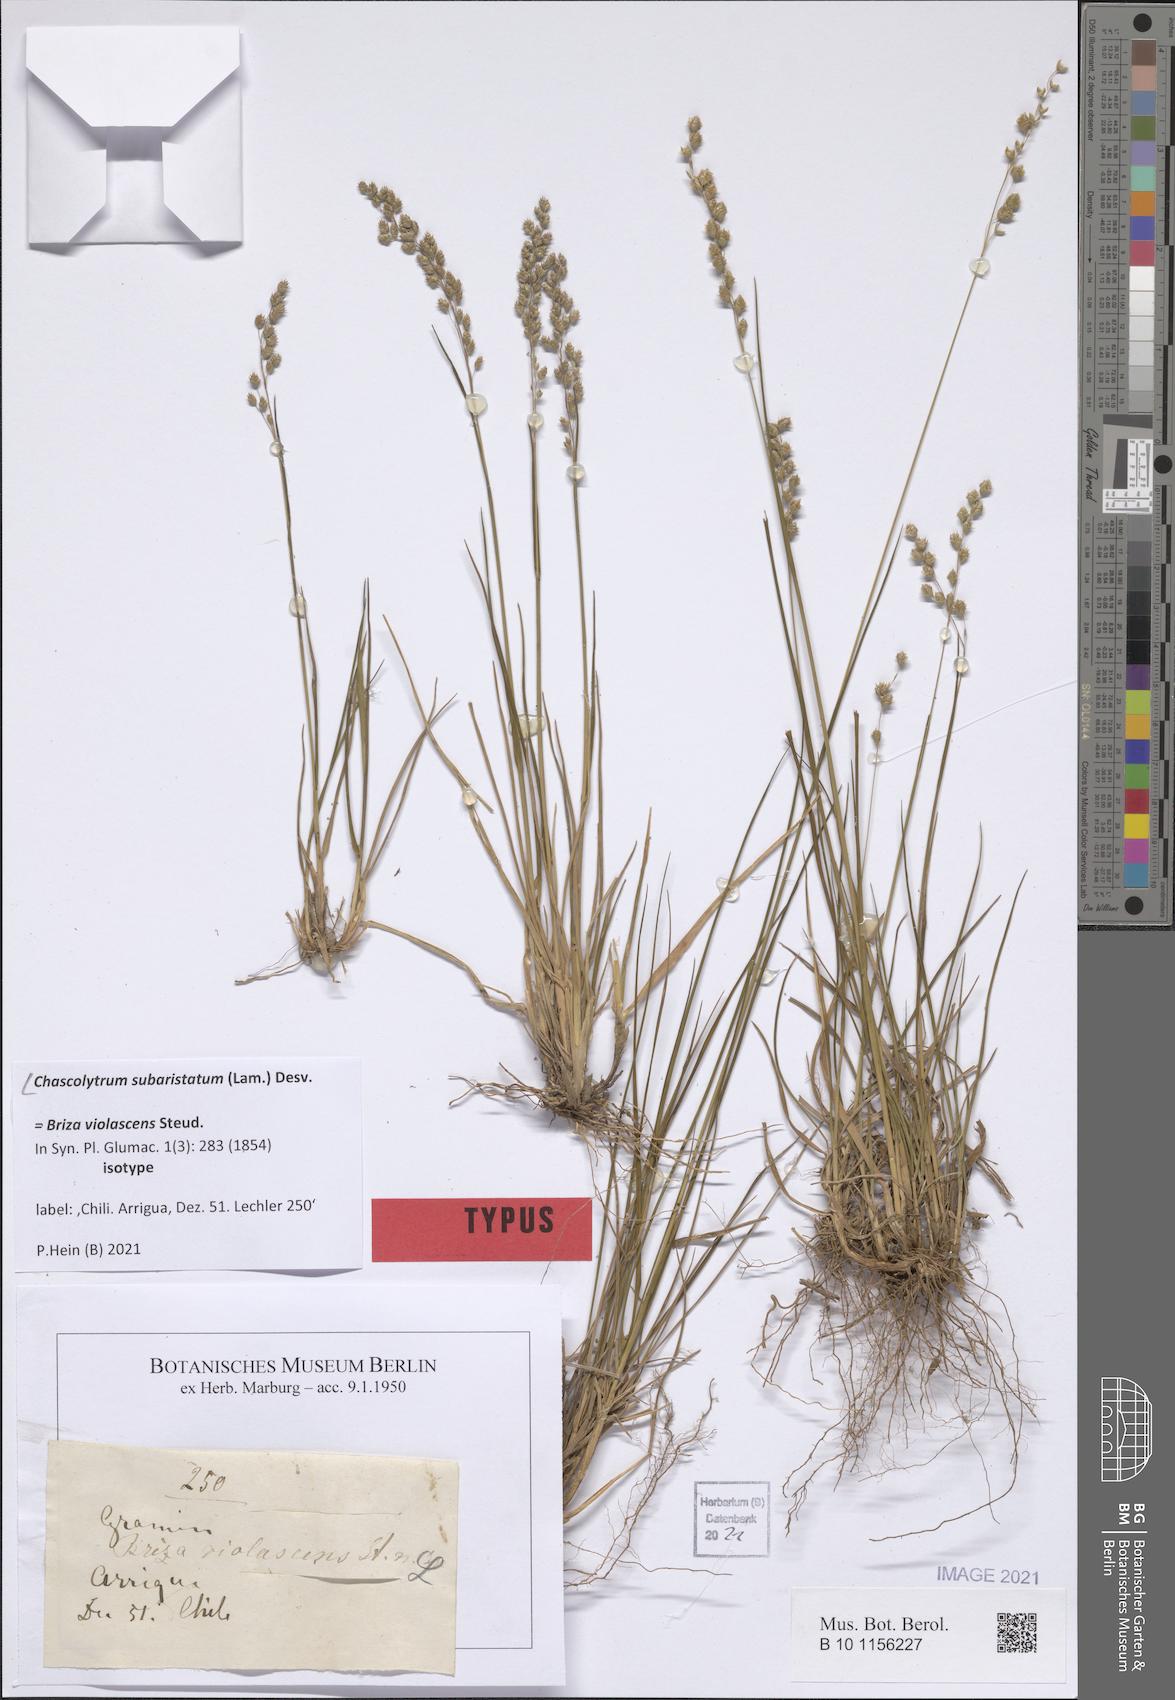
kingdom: Plantae
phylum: Tracheophyta
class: Liliopsida
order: Poales
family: Poaceae
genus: Chascolytrum
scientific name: Chascolytrum subaristatum
